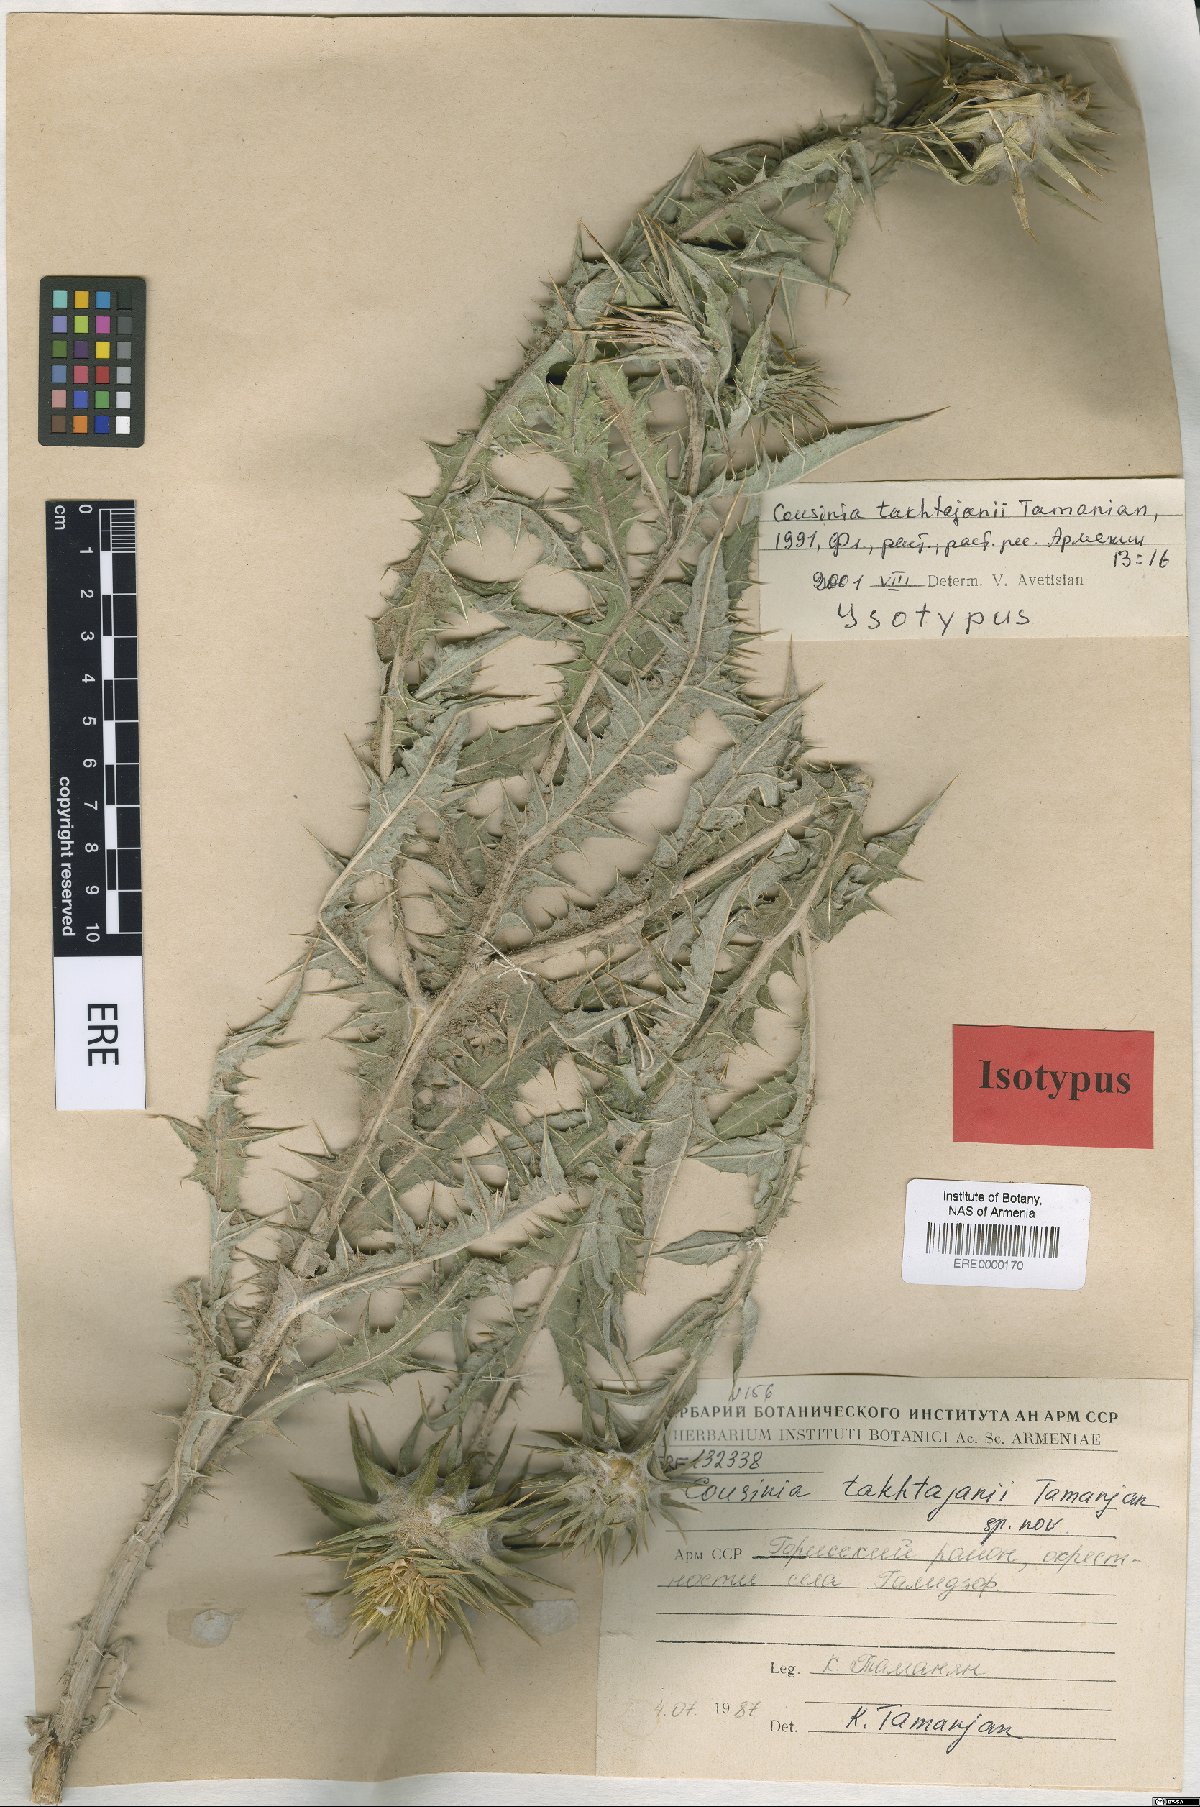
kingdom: Plantae
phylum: Tracheophyta
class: Magnoliopsida
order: Asterales
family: Asteraceae
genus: Cousinia
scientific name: Cousinia macrocephala
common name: Macrocephalous cousinia
